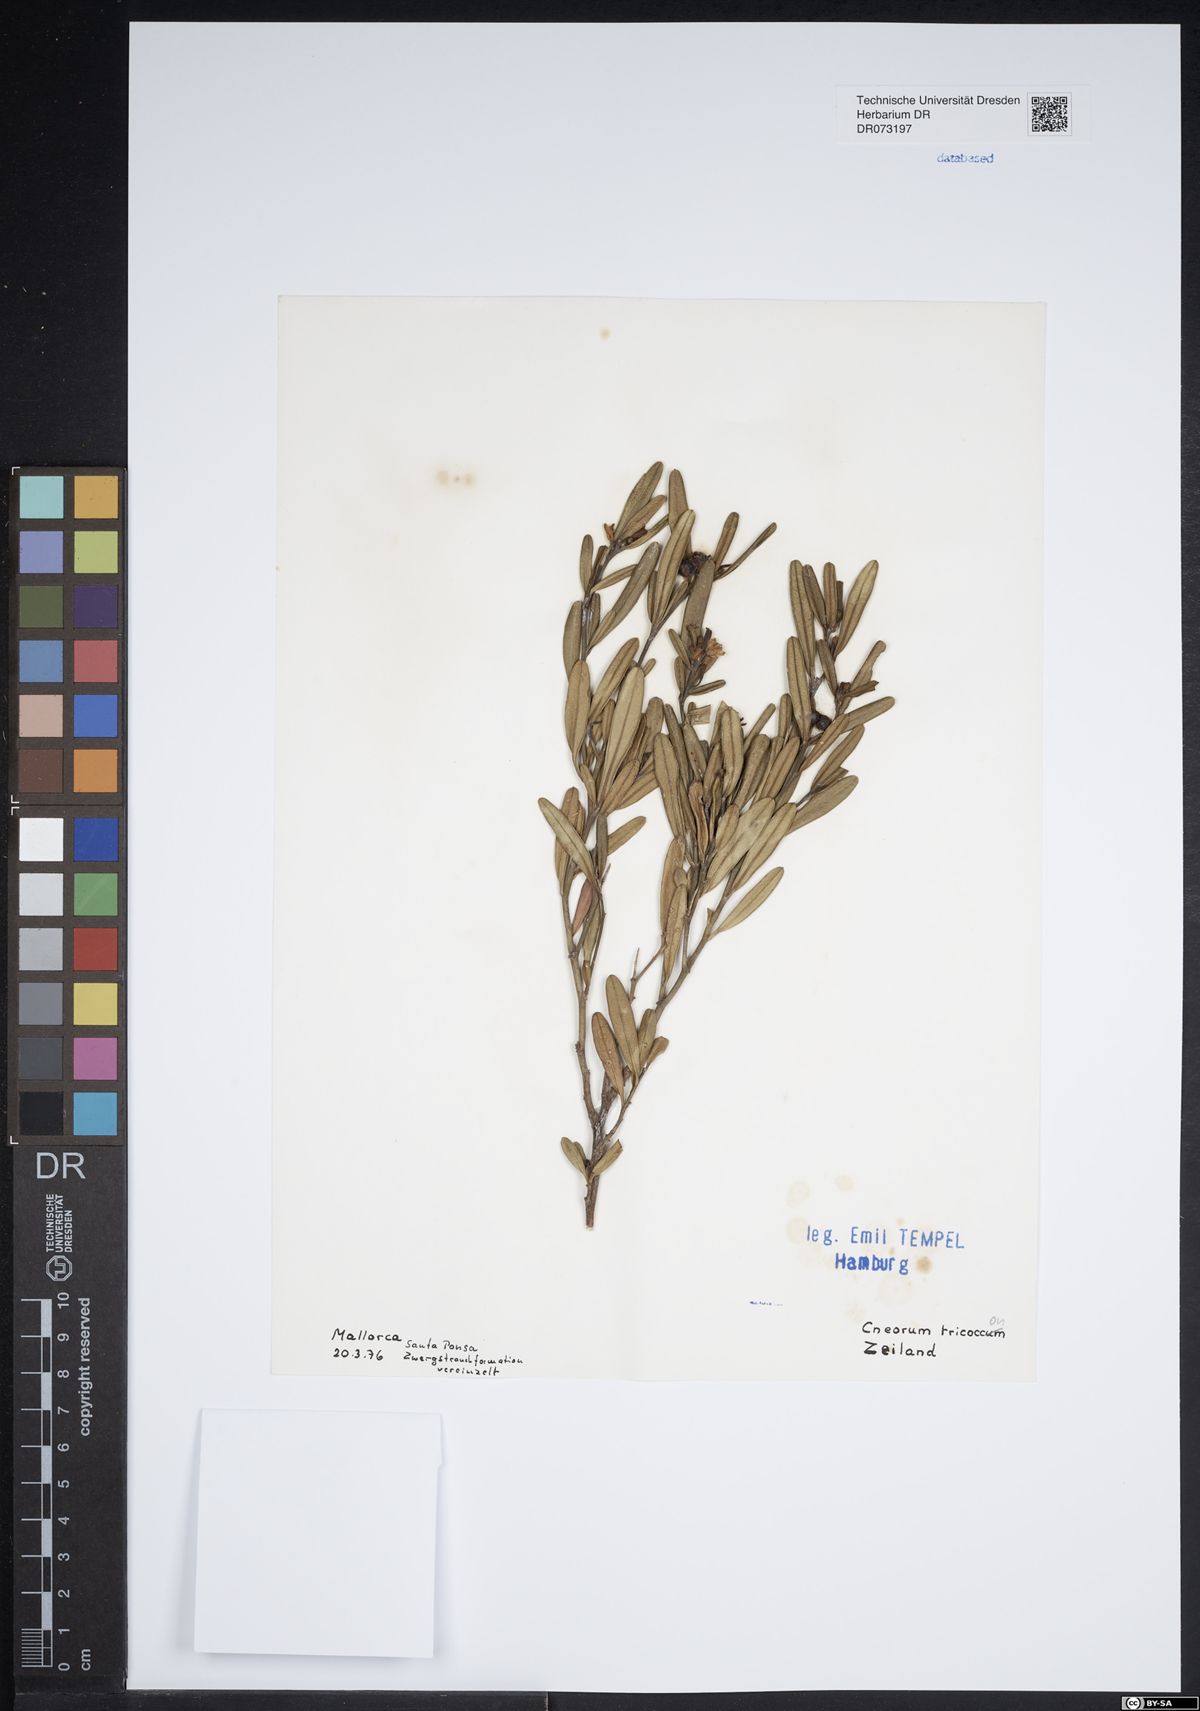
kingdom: Plantae
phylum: Tracheophyta
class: Magnoliopsida
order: Sapindales
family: Rutaceae
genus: Cneorum
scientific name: Cneorum tricoccon
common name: Spurge olive
